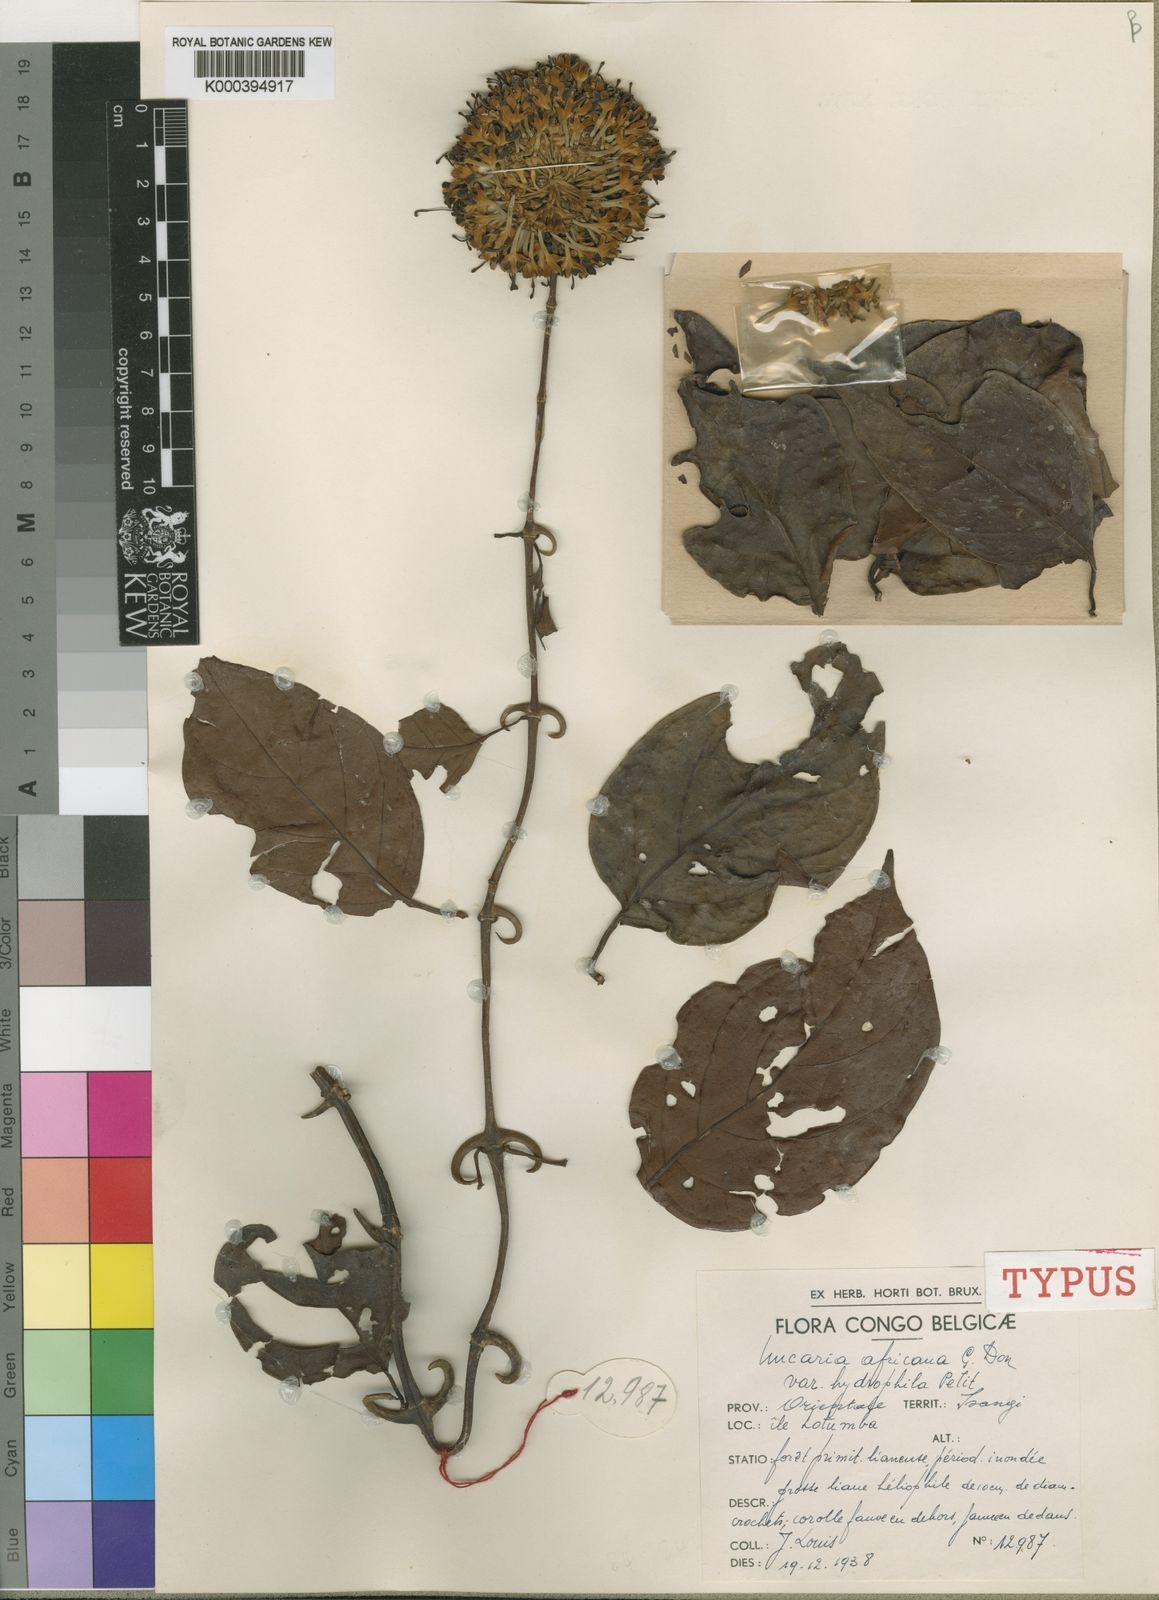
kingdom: Plantae
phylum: Tracheophyta
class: Magnoliopsida
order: Gentianales
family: Rubiaceae
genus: Uncaria
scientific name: Uncaria africana
